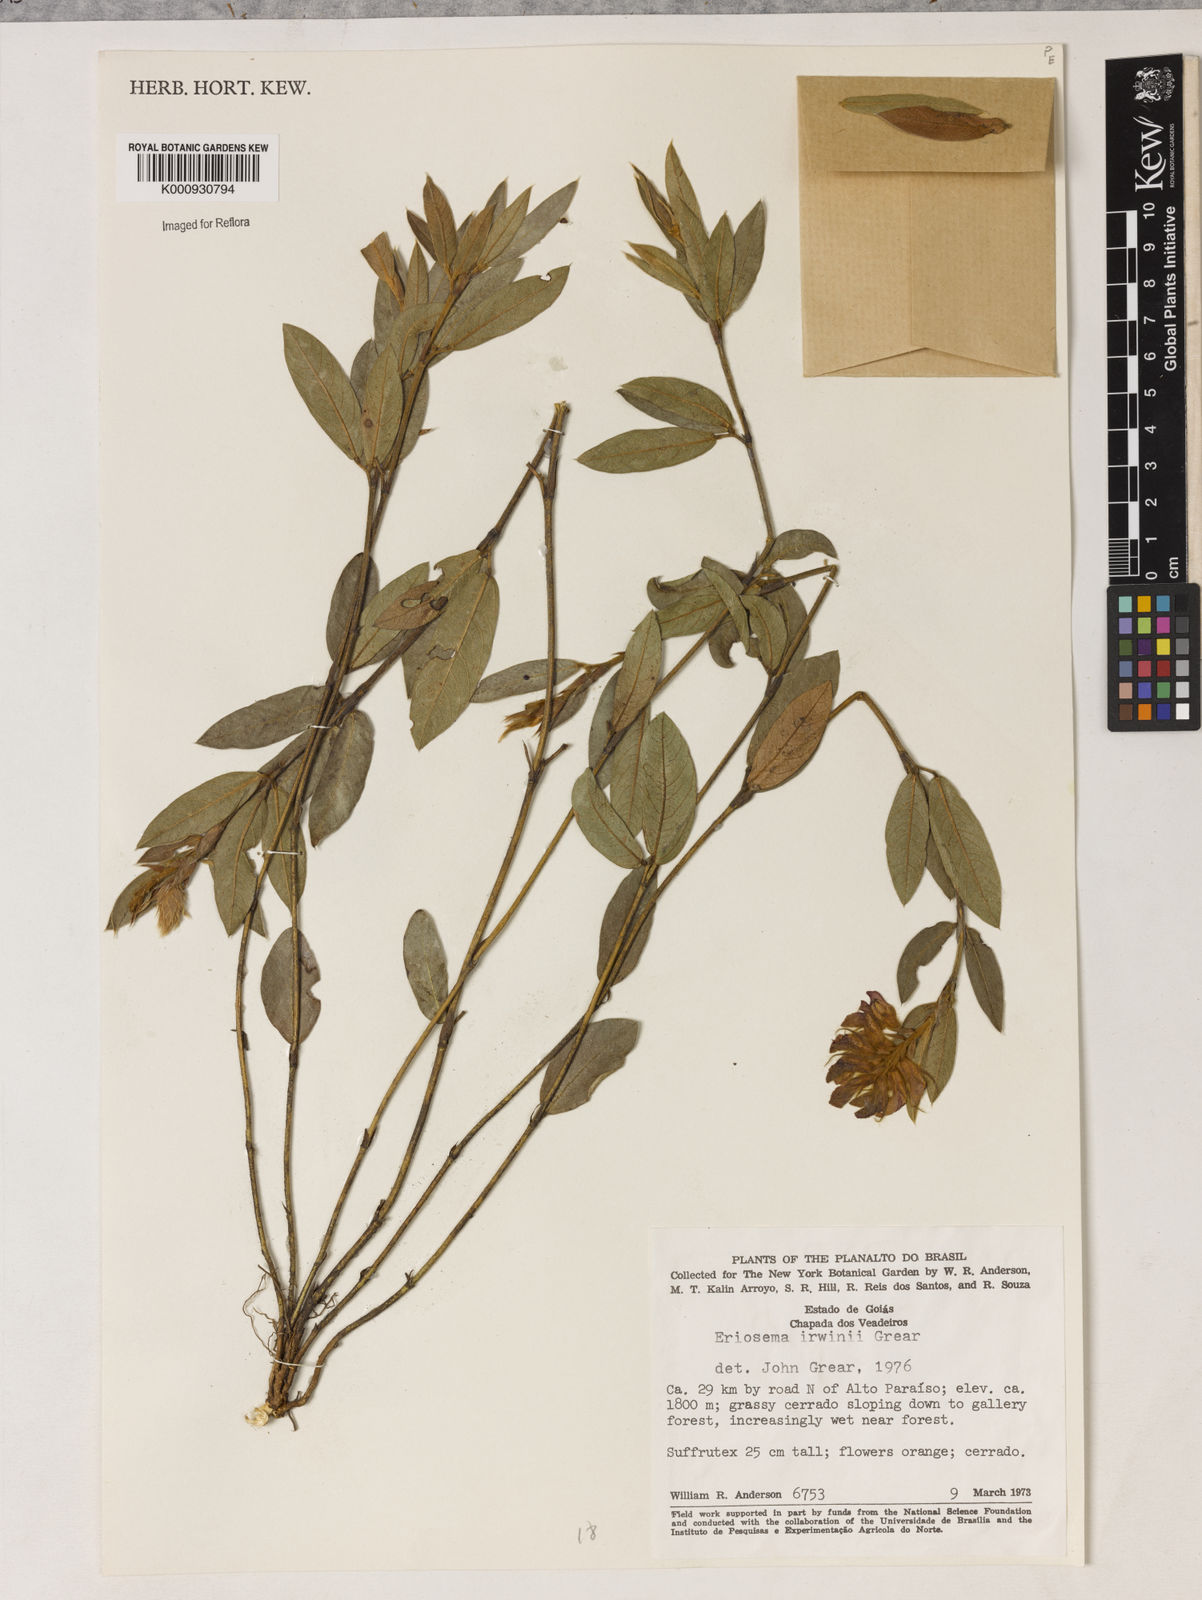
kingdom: Plantae
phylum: Tracheophyta
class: Magnoliopsida
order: Fabales
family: Fabaceae
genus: Eriosema
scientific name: Eriosema irwinii
